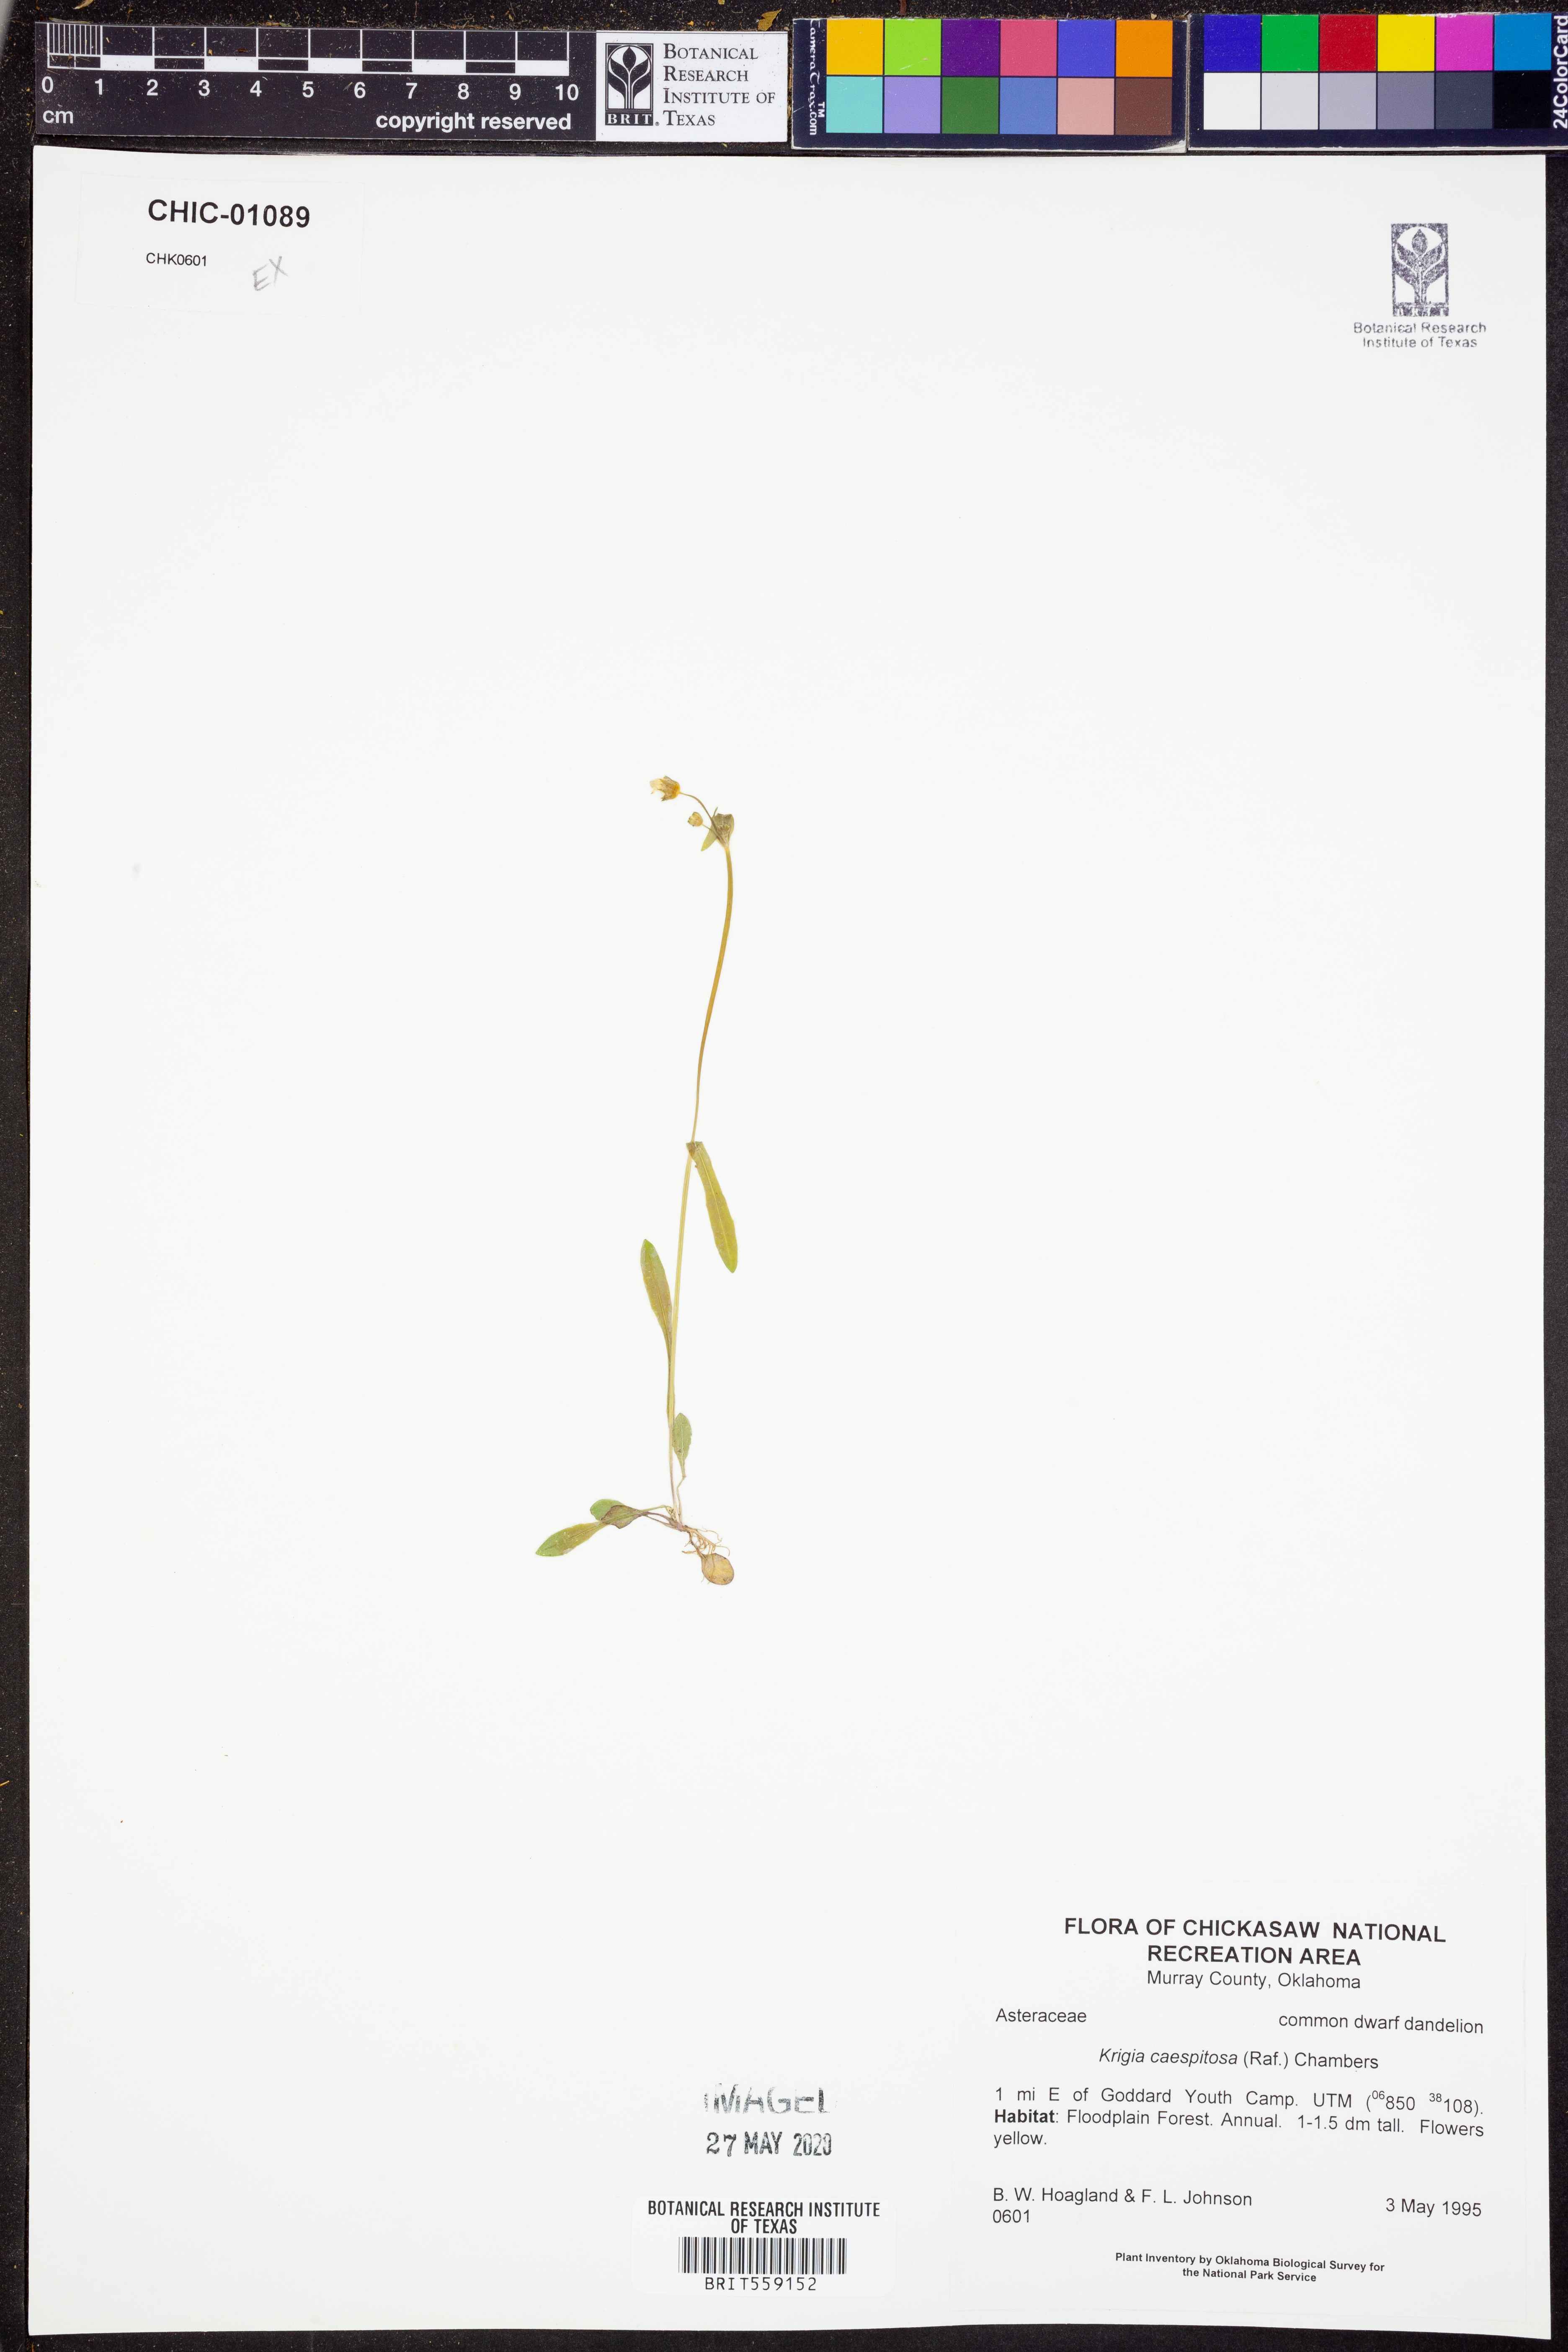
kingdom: Plantae
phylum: Tracheophyta
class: Magnoliopsida
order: Asterales
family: Asteraceae
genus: Krigia
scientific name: Krigia caespitosa
